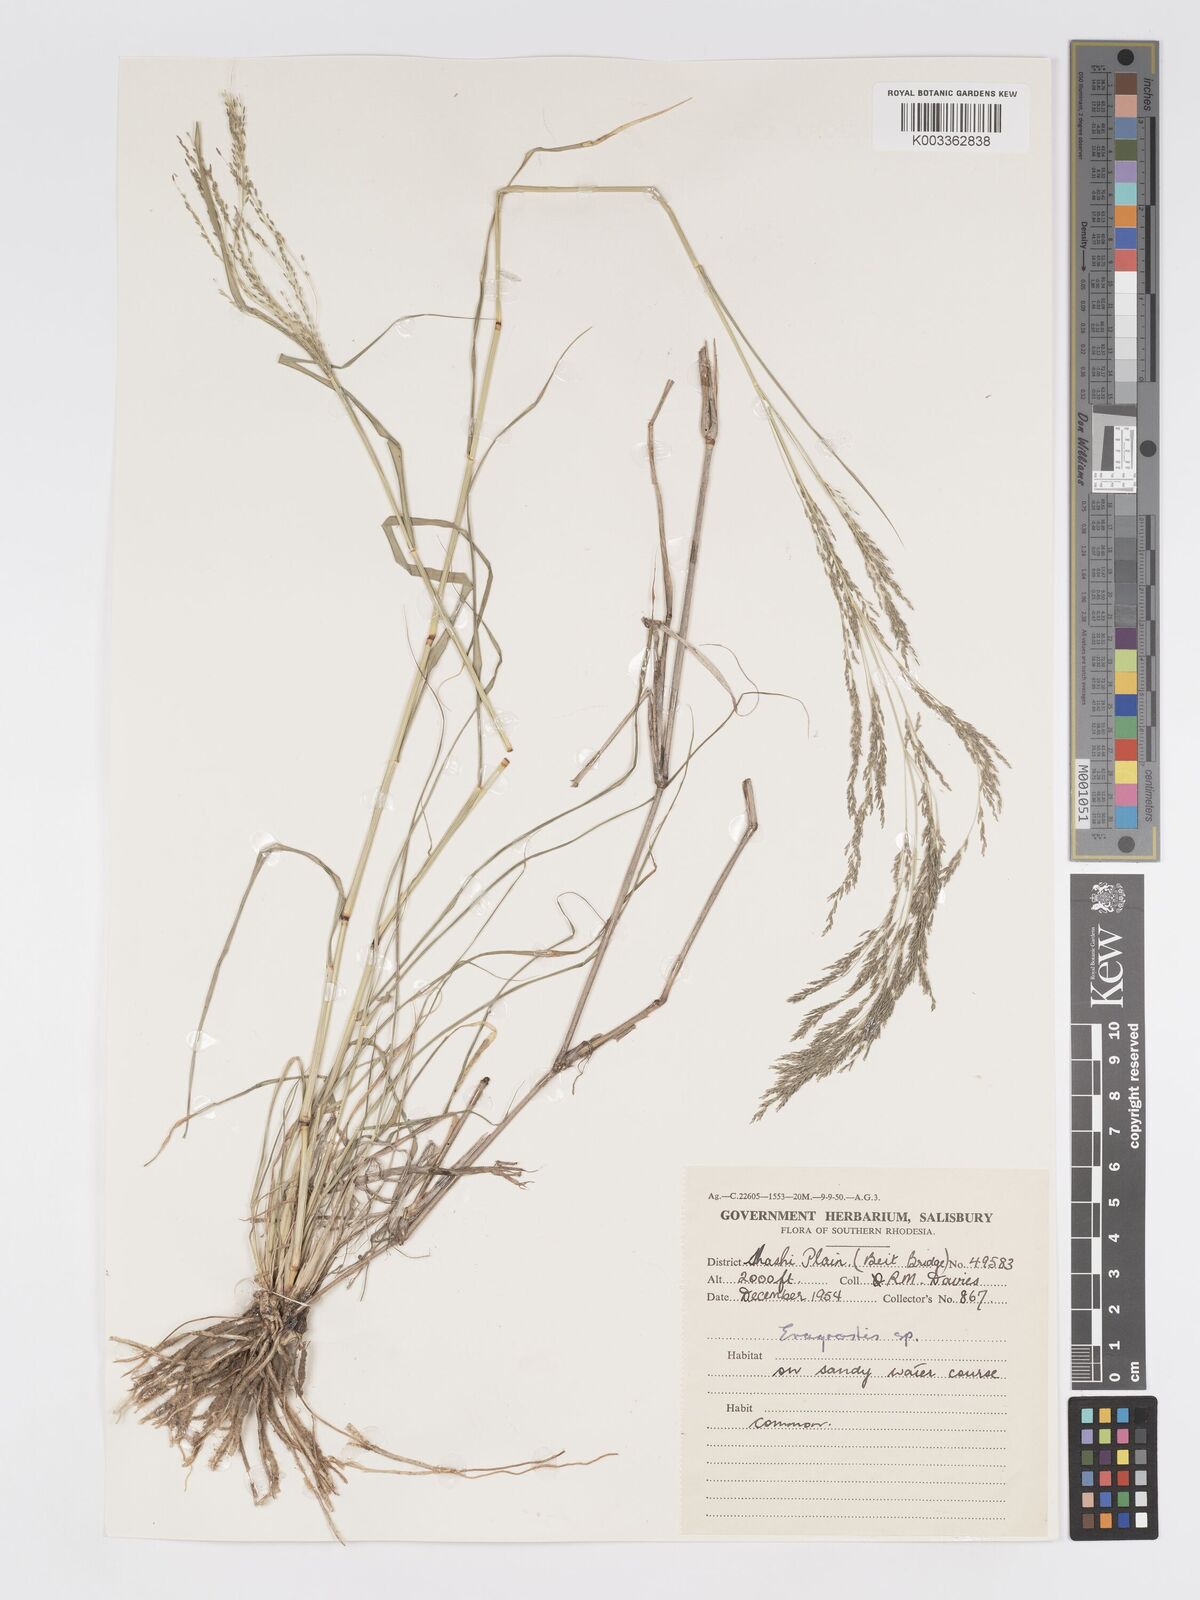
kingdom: Plantae
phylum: Tracheophyta
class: Liliopsida
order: Poales
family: Poaceae
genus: Eragrostis
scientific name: Eragrostis cylindriflora
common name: Cylinderflower lovegrass
